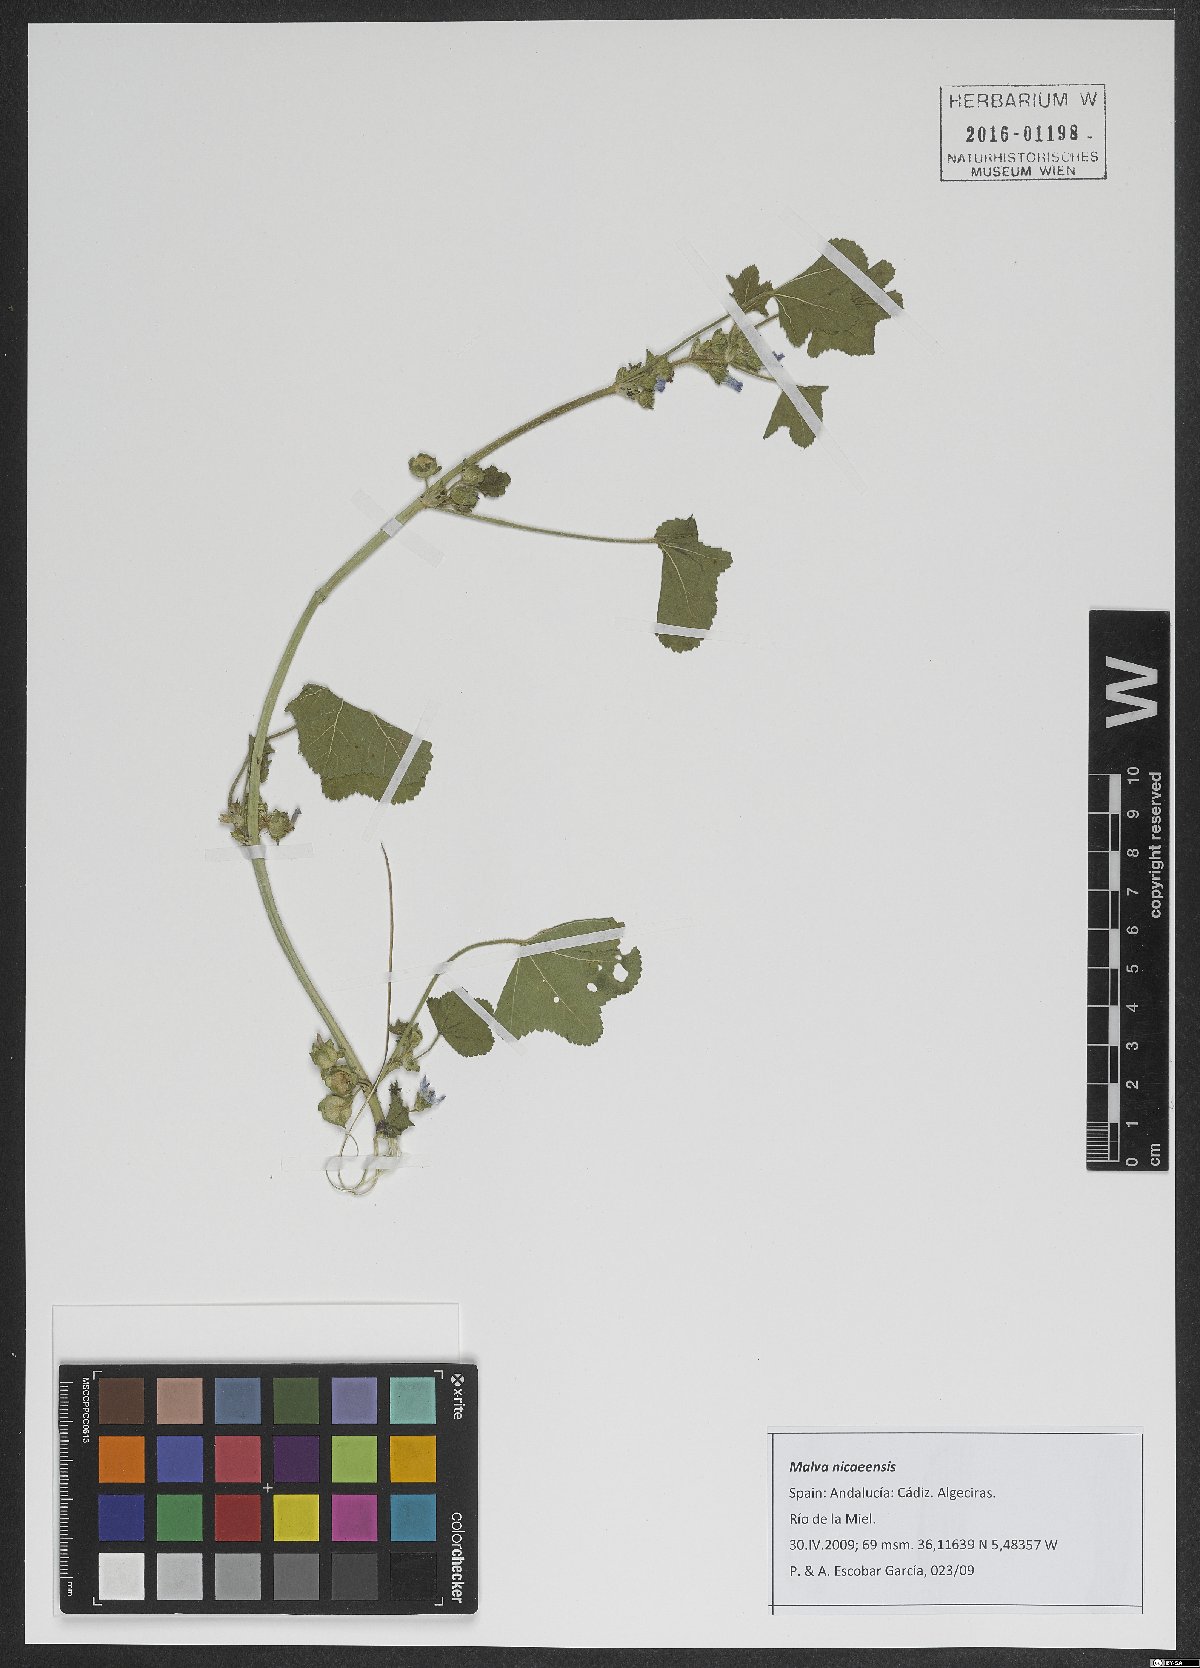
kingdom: Plantae
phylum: Tracheophyta
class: Magnoliopsida
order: Malvales
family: Malvaceae
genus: Malva
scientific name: Malva nicaeensis
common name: French mallow
